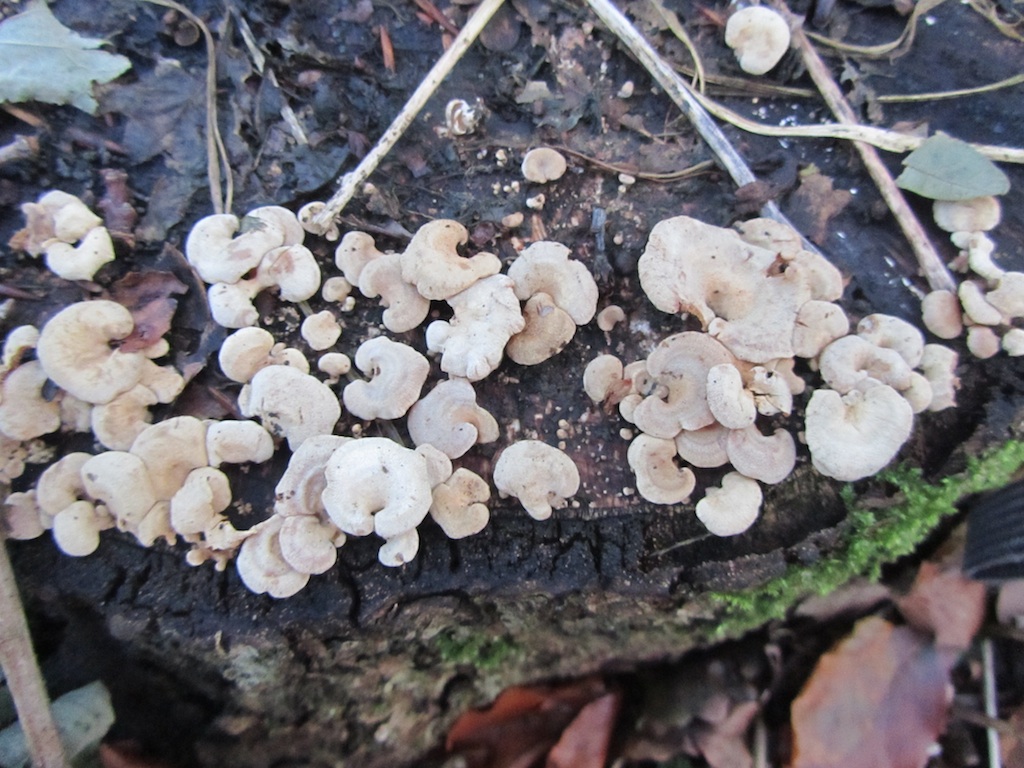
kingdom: Fungi
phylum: Basidiomycota
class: Agaricomycetes
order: Agaricales
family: Mycenaceae
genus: Panellus
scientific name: Panellus stipticus
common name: kliddet epaulethat
